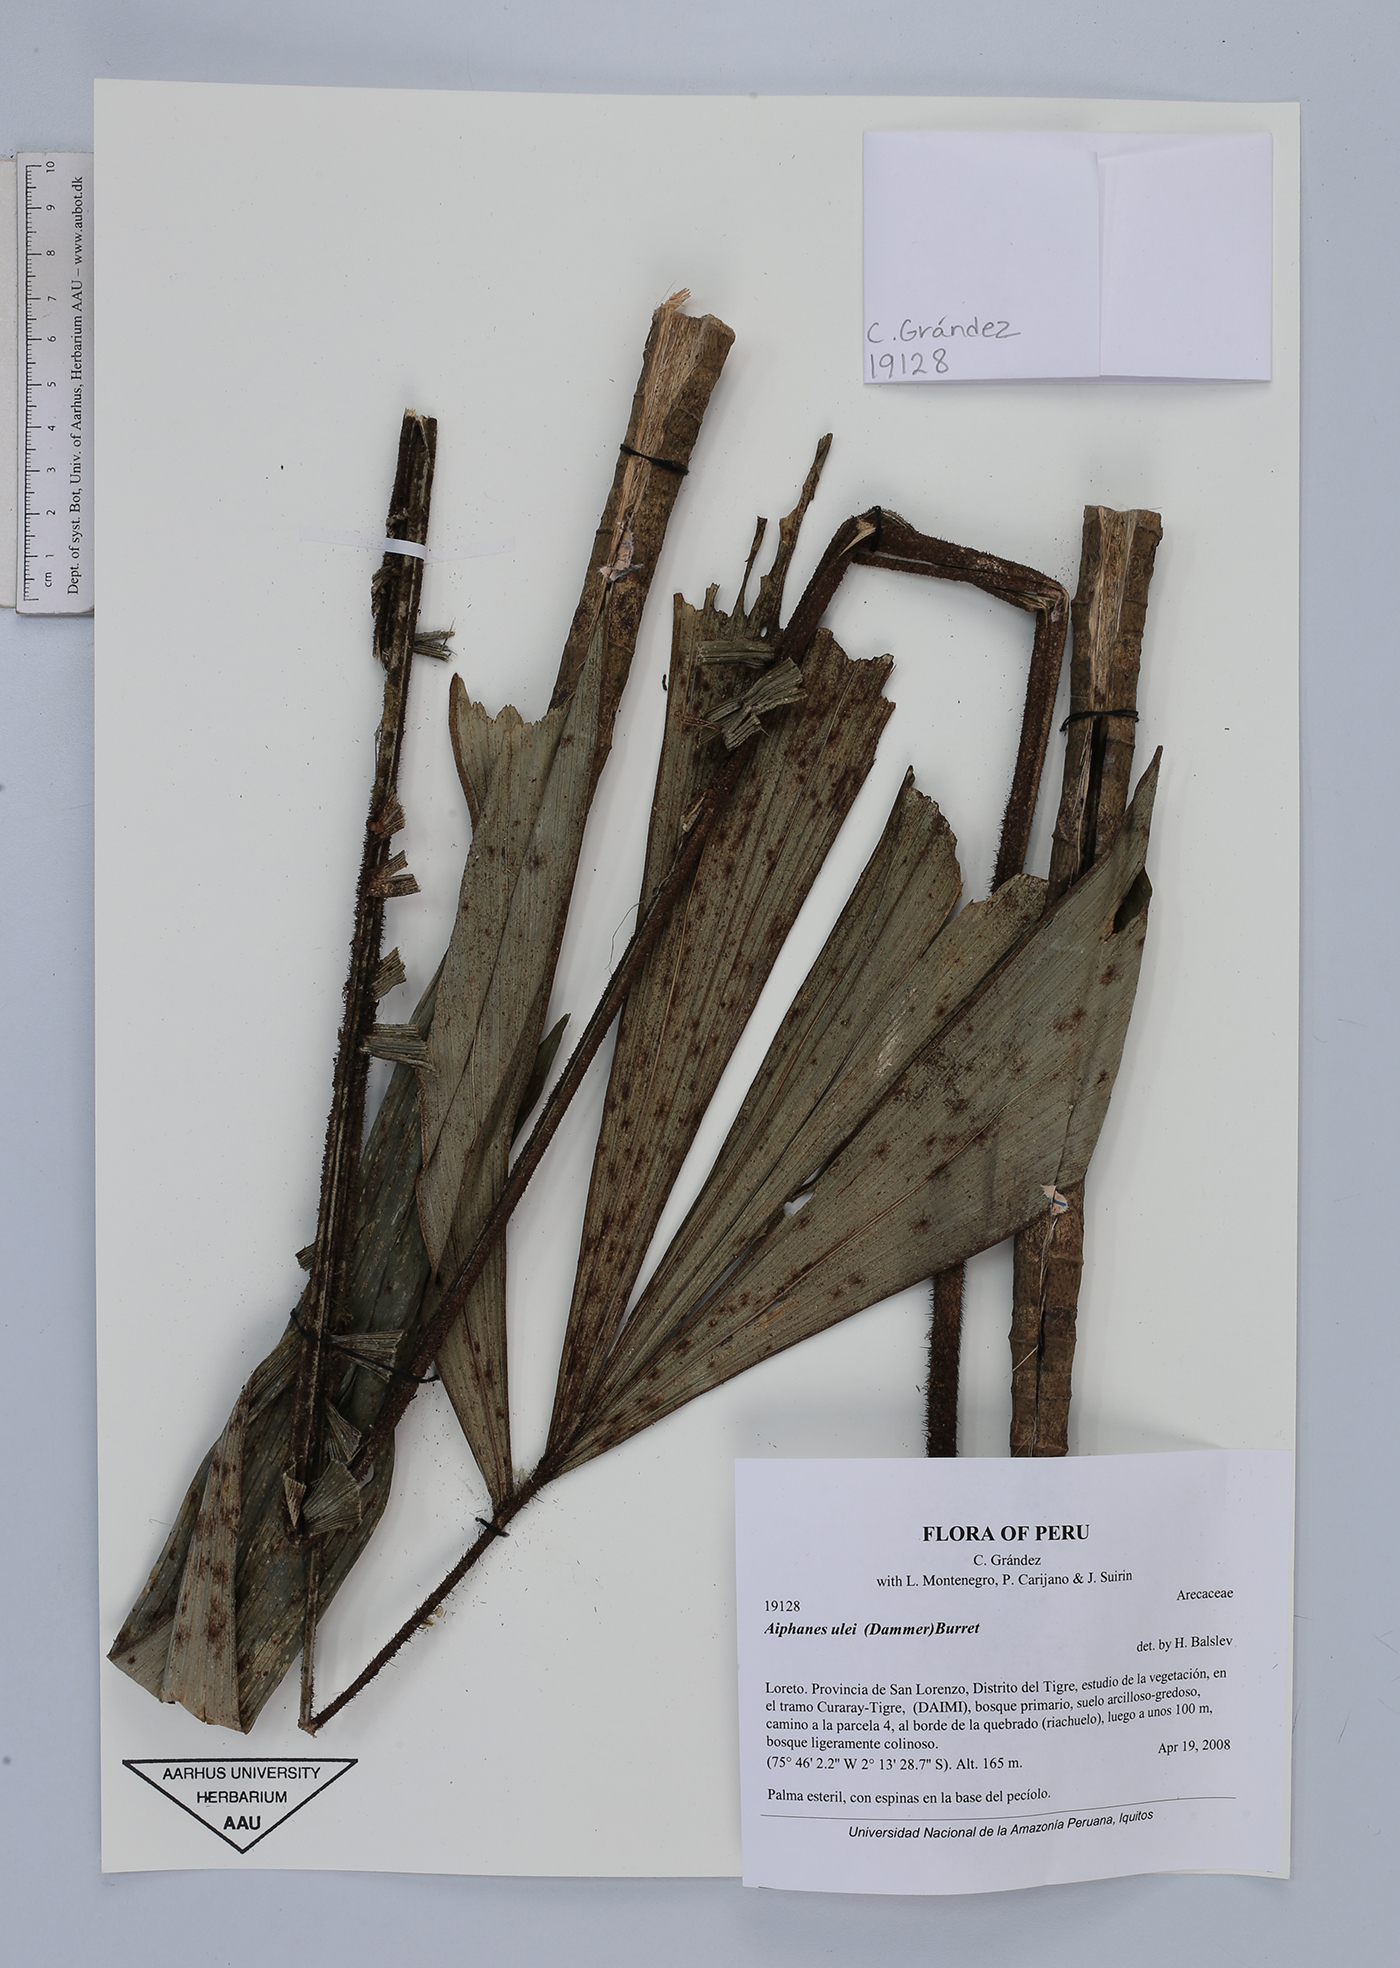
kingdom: Plantae
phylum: Tracheophyta
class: Liliopsida
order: Arecales
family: Arecaceae
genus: Aiphanes
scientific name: Aiphanes ulei
